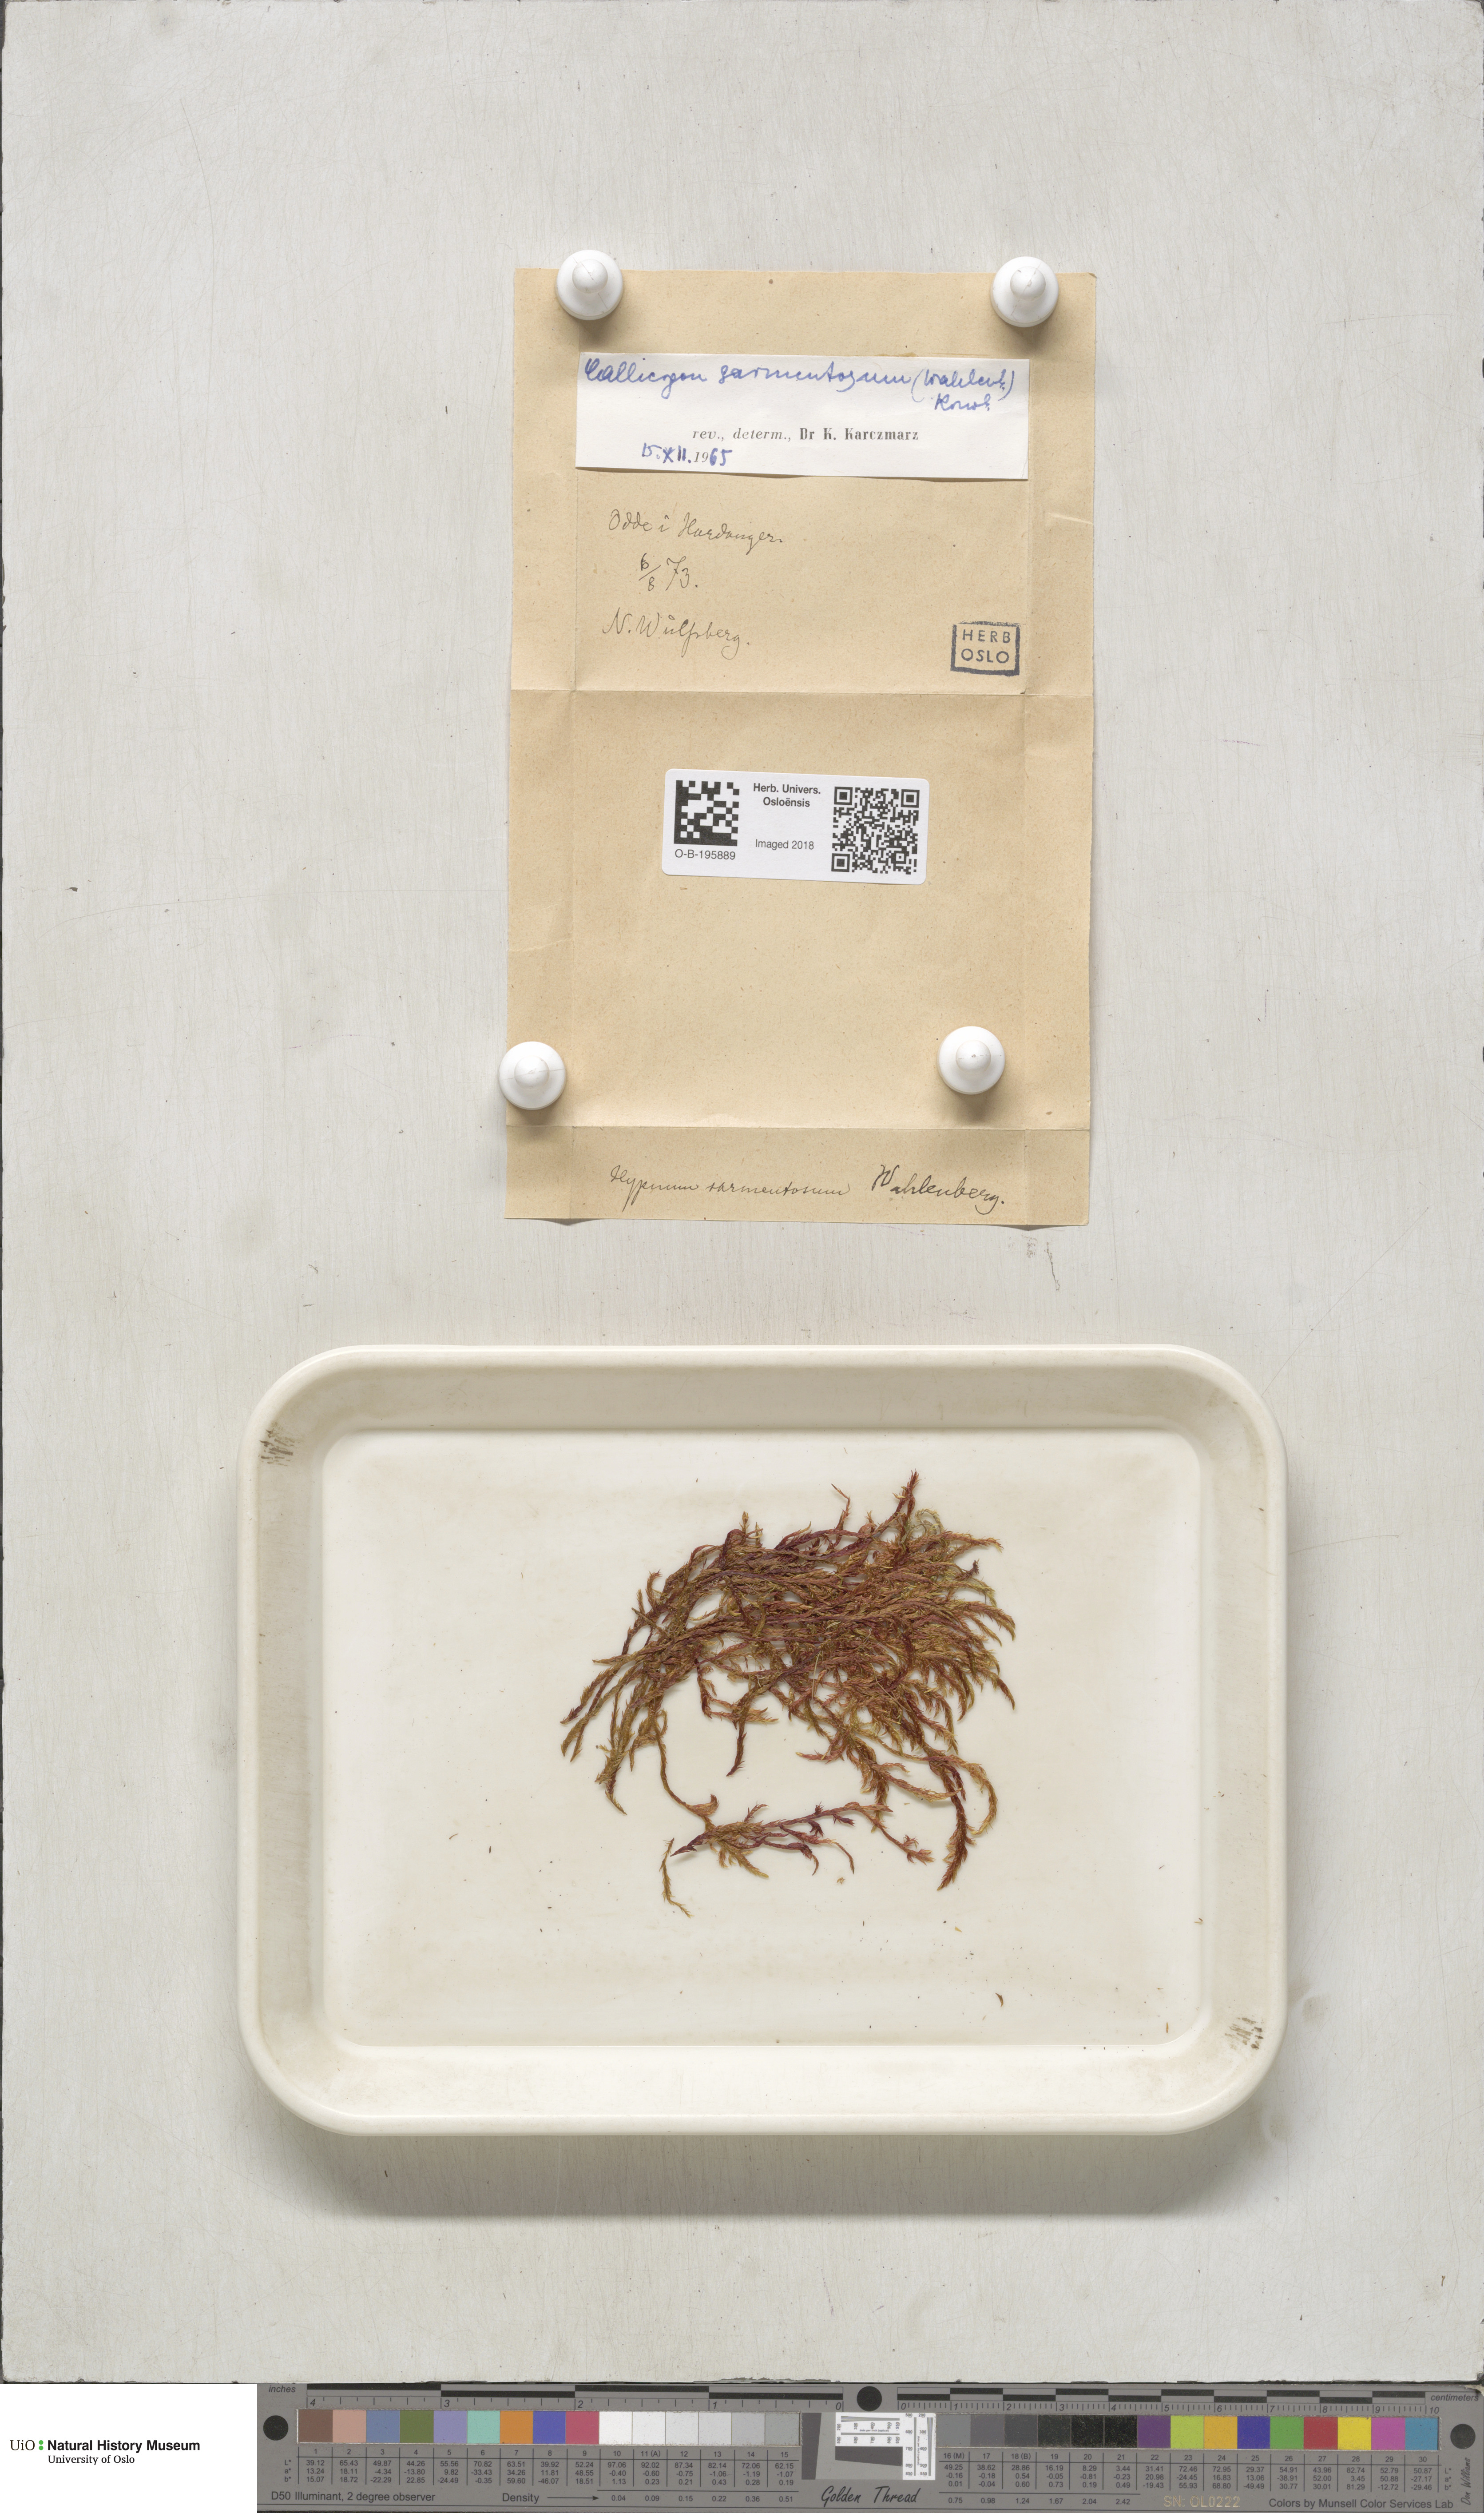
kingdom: Plantae
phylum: Bryophyta
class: Bryopsida
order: Hypnales
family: Calliergonaceae
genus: Sarmentypnum
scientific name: Sarmentypnum sarmentosum
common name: Twiggy spoon moss
